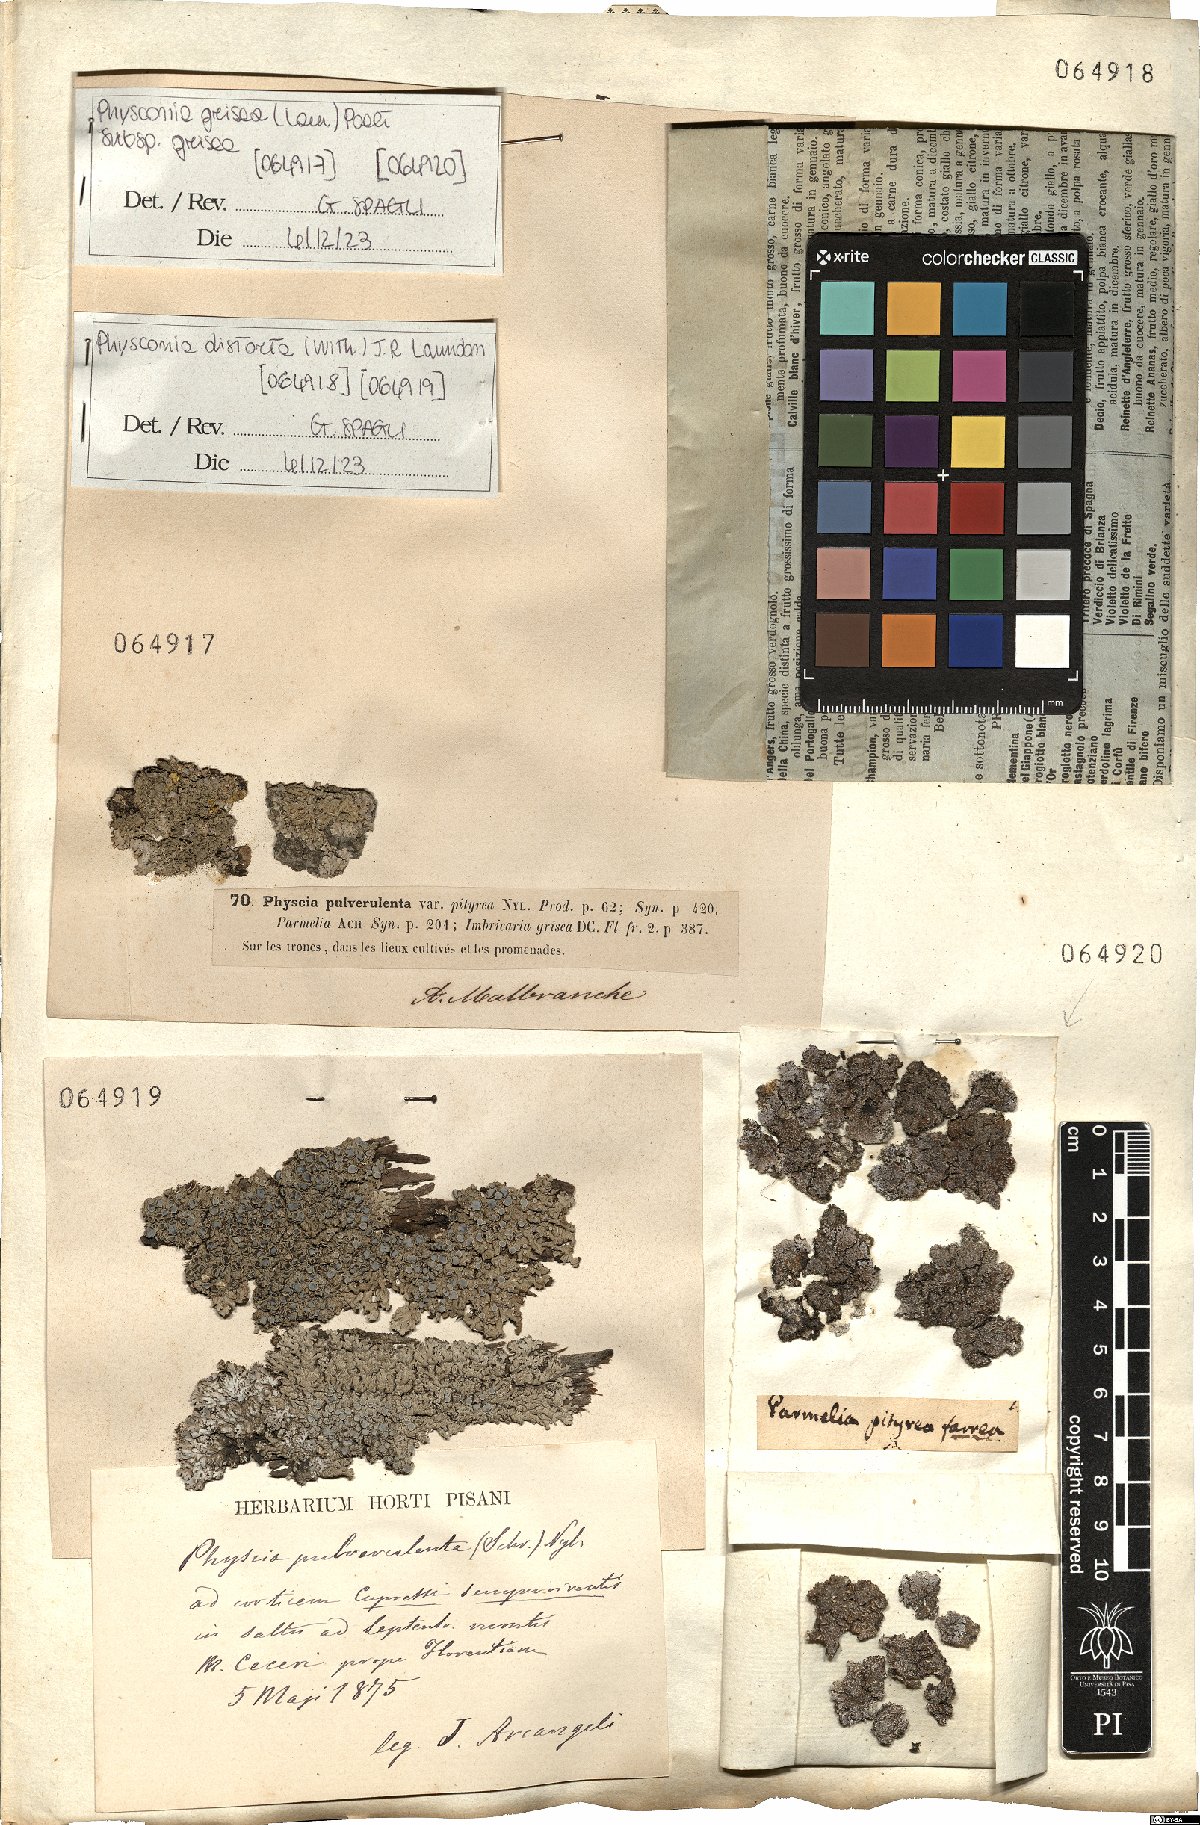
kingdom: Fungi
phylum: Ascomycota
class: Lecanoromycetes
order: Caliciales
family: Physciaceae
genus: Poeltonia
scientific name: Poeltonia grisea
